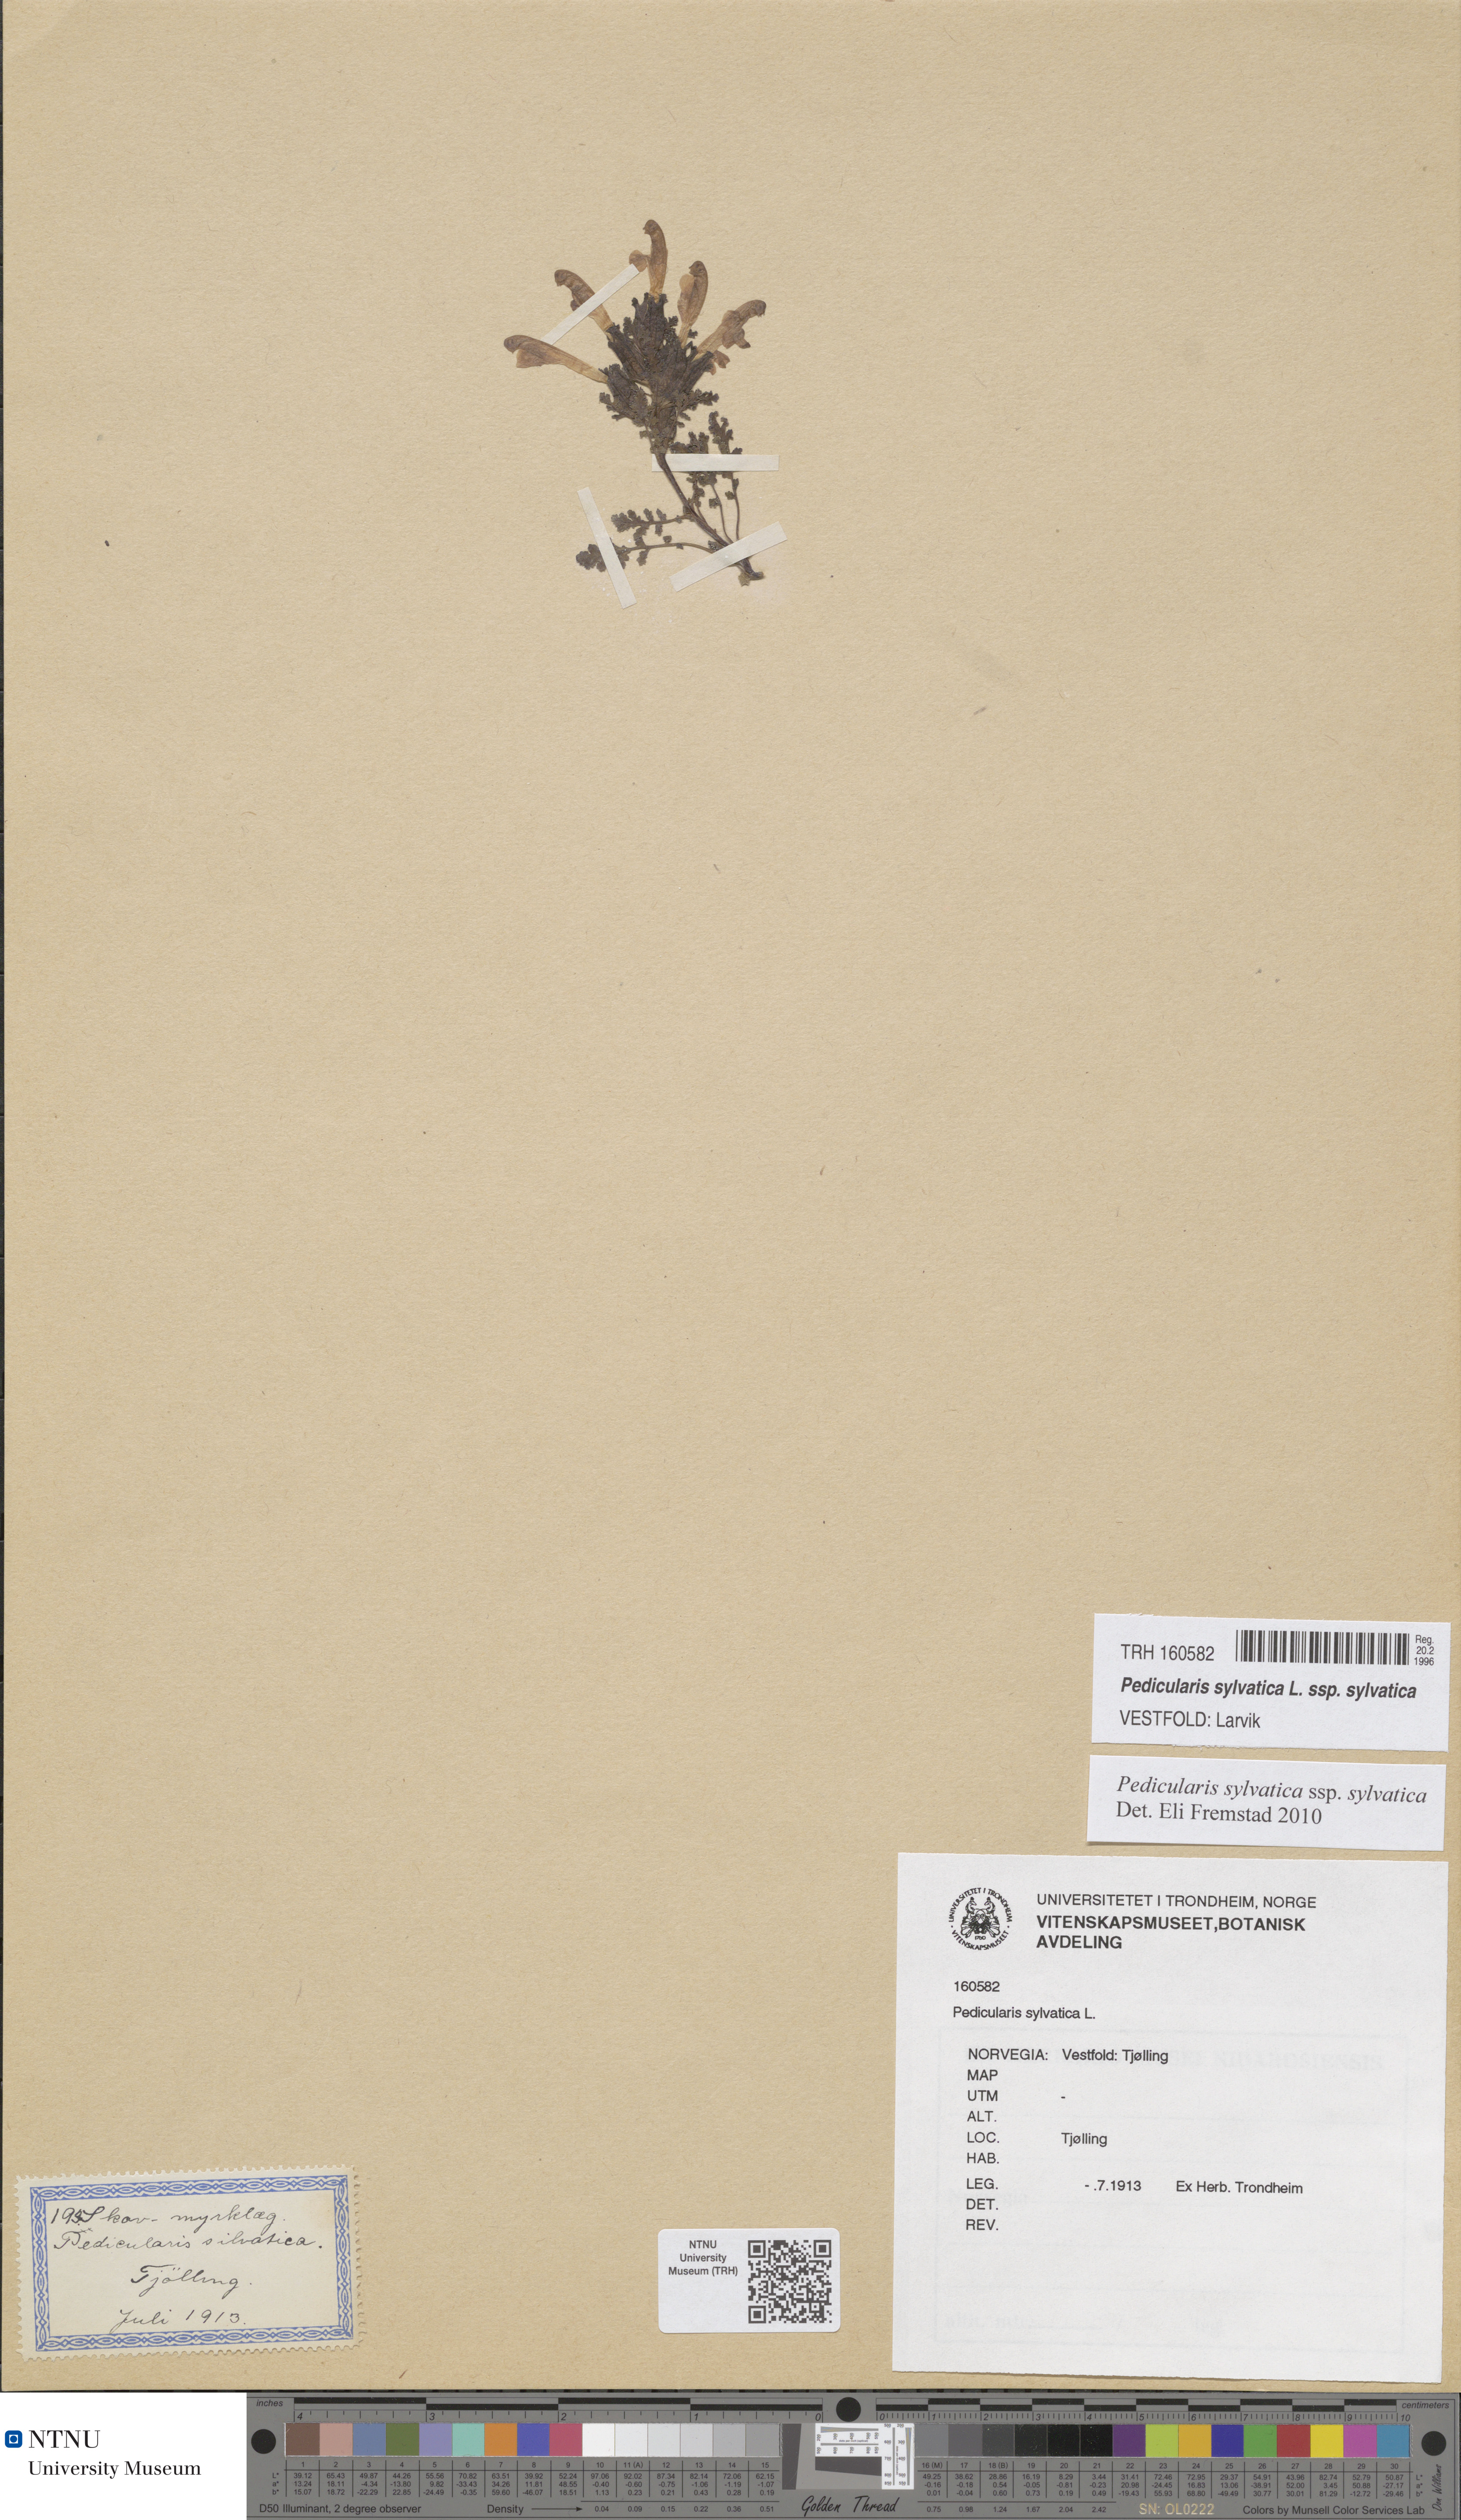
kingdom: Plantae
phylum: Tracheophyta
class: Magnoliopsida
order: Lamiales
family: Orobanchaceae
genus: Pedicularis
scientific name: Pedicularis sylvatica
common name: Lousewort
